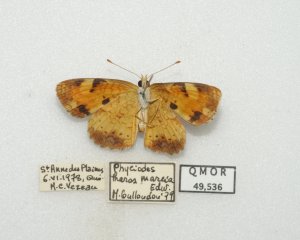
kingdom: Animalia
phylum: Arthropoda
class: Insecta
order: Lepidoptera
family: Nymphalidae
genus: Phyciodes
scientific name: Phyciodes tharos
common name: Northern Crescent
